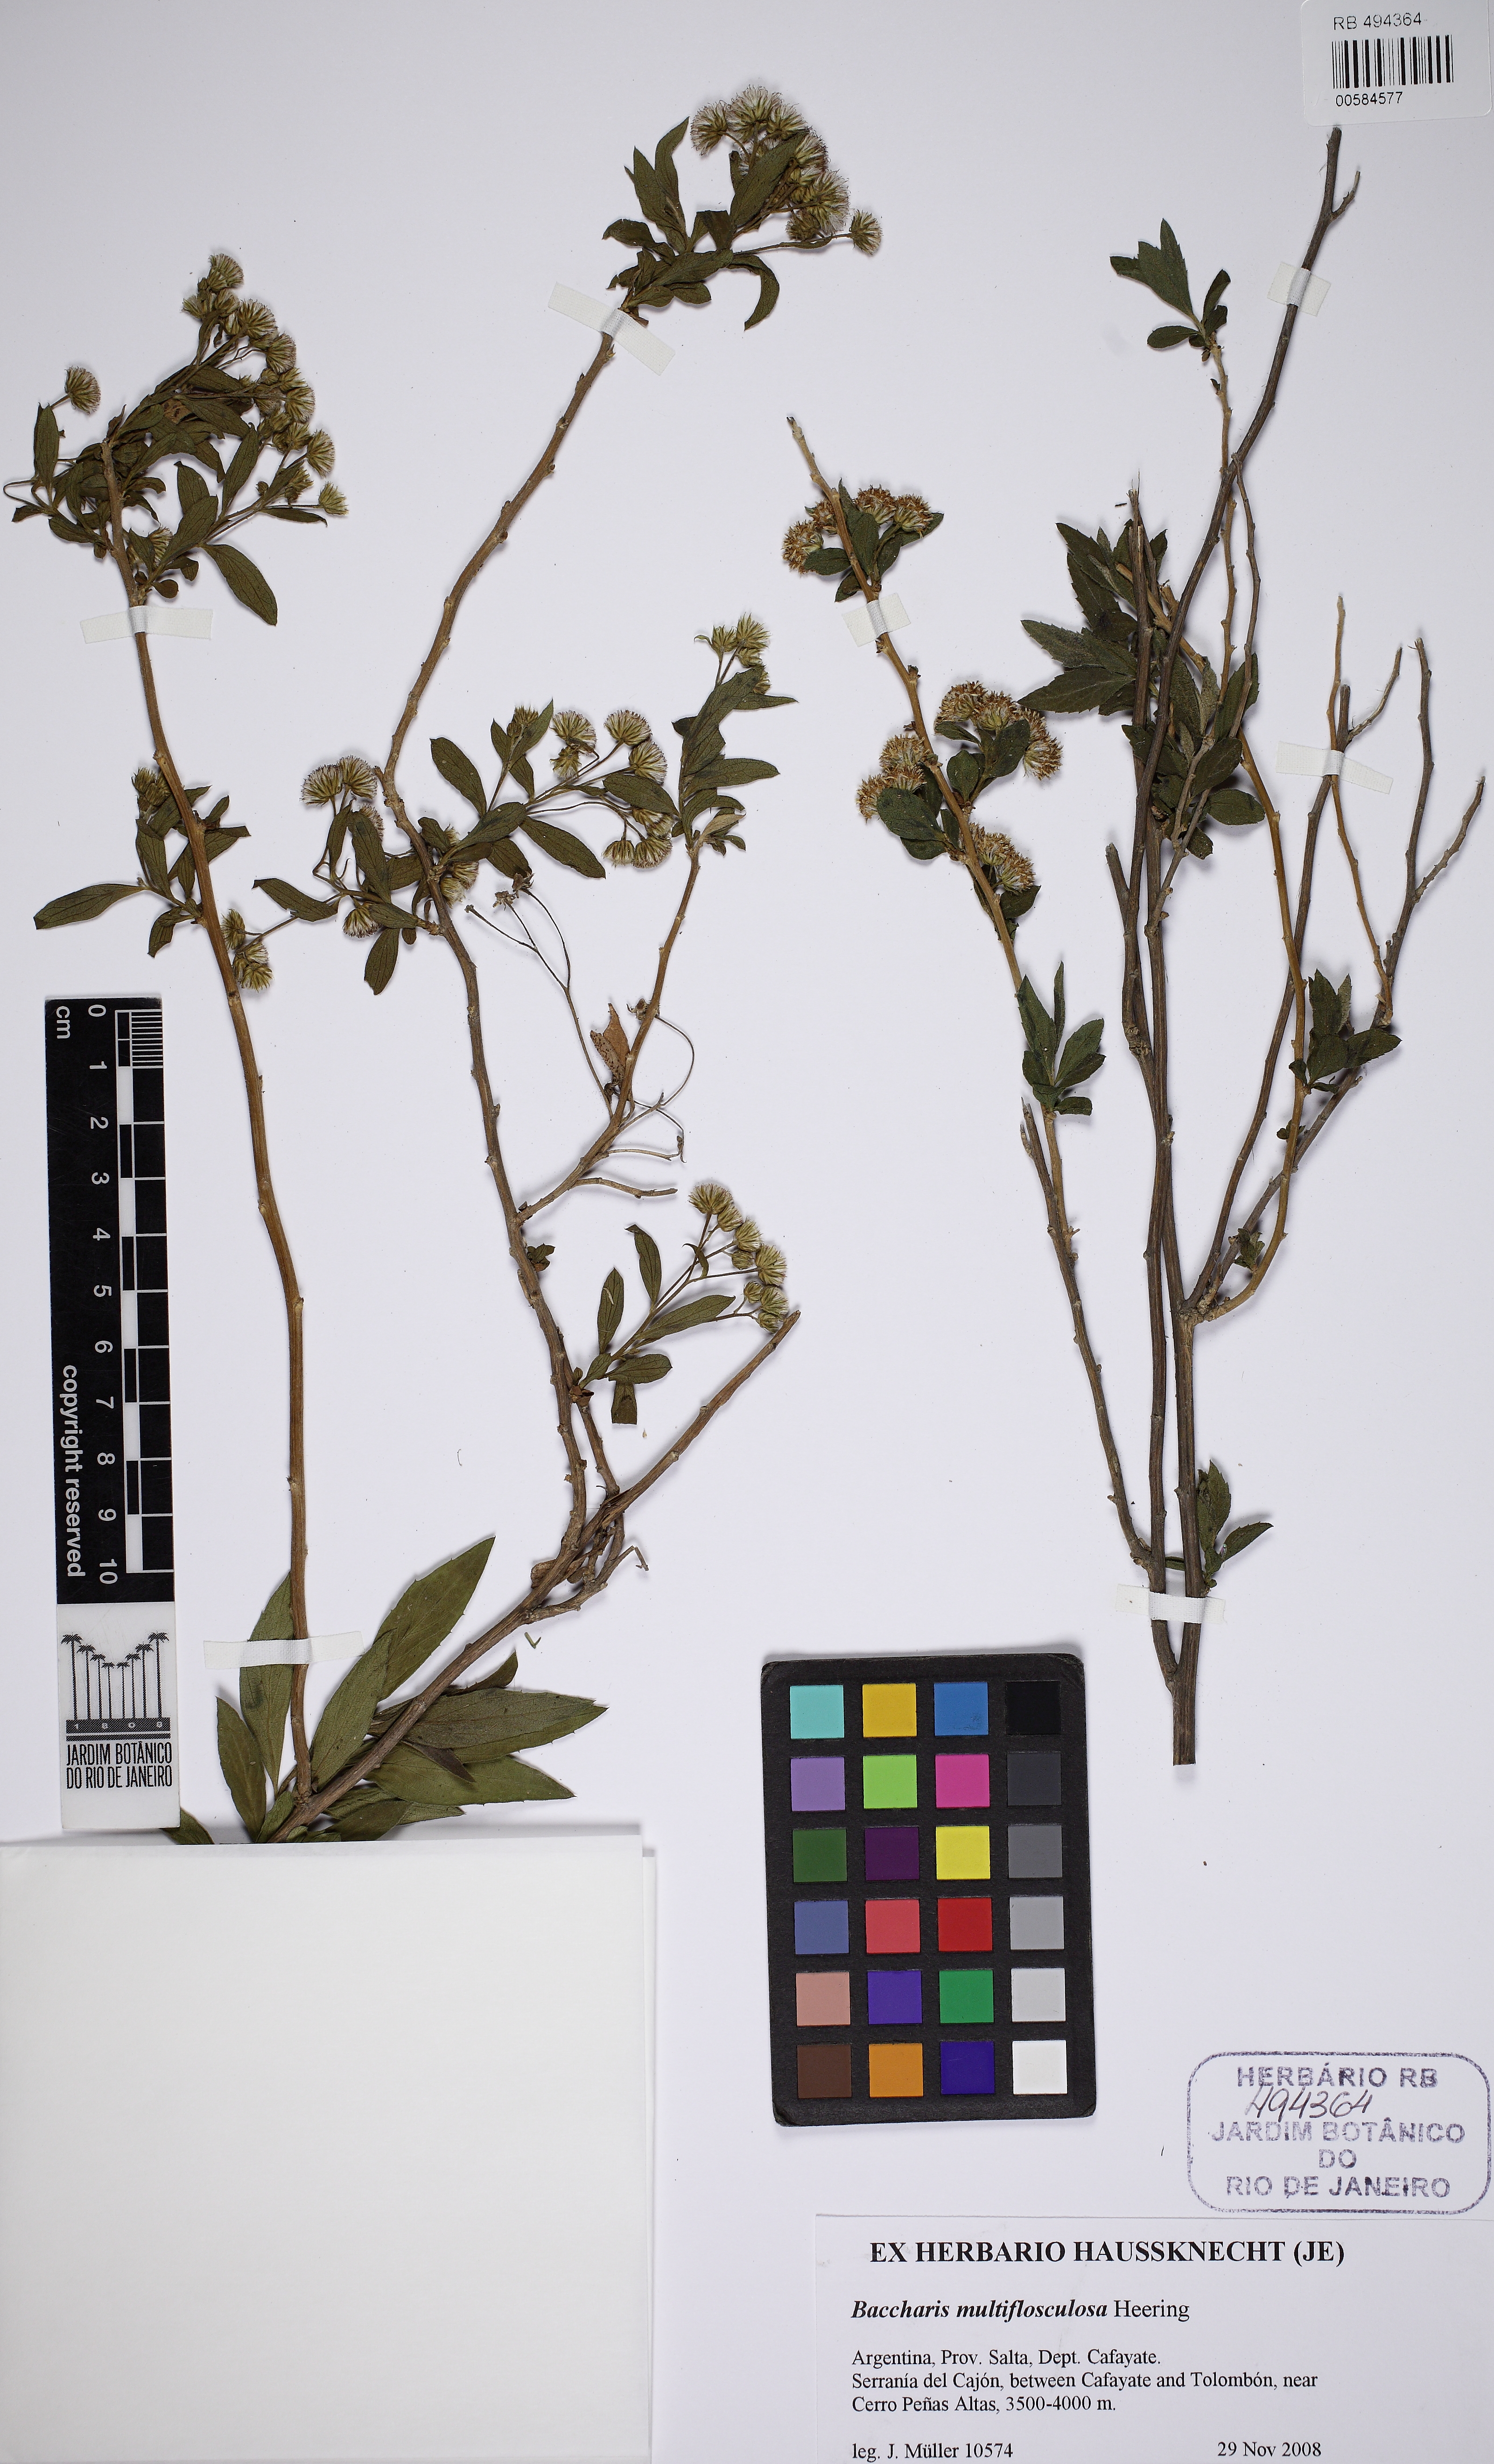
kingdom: Plantae
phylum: Tracheophyta
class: Magnoliopsida
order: Asterales
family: Asteraceae
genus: Baccharis
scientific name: Baccharis pulchella
